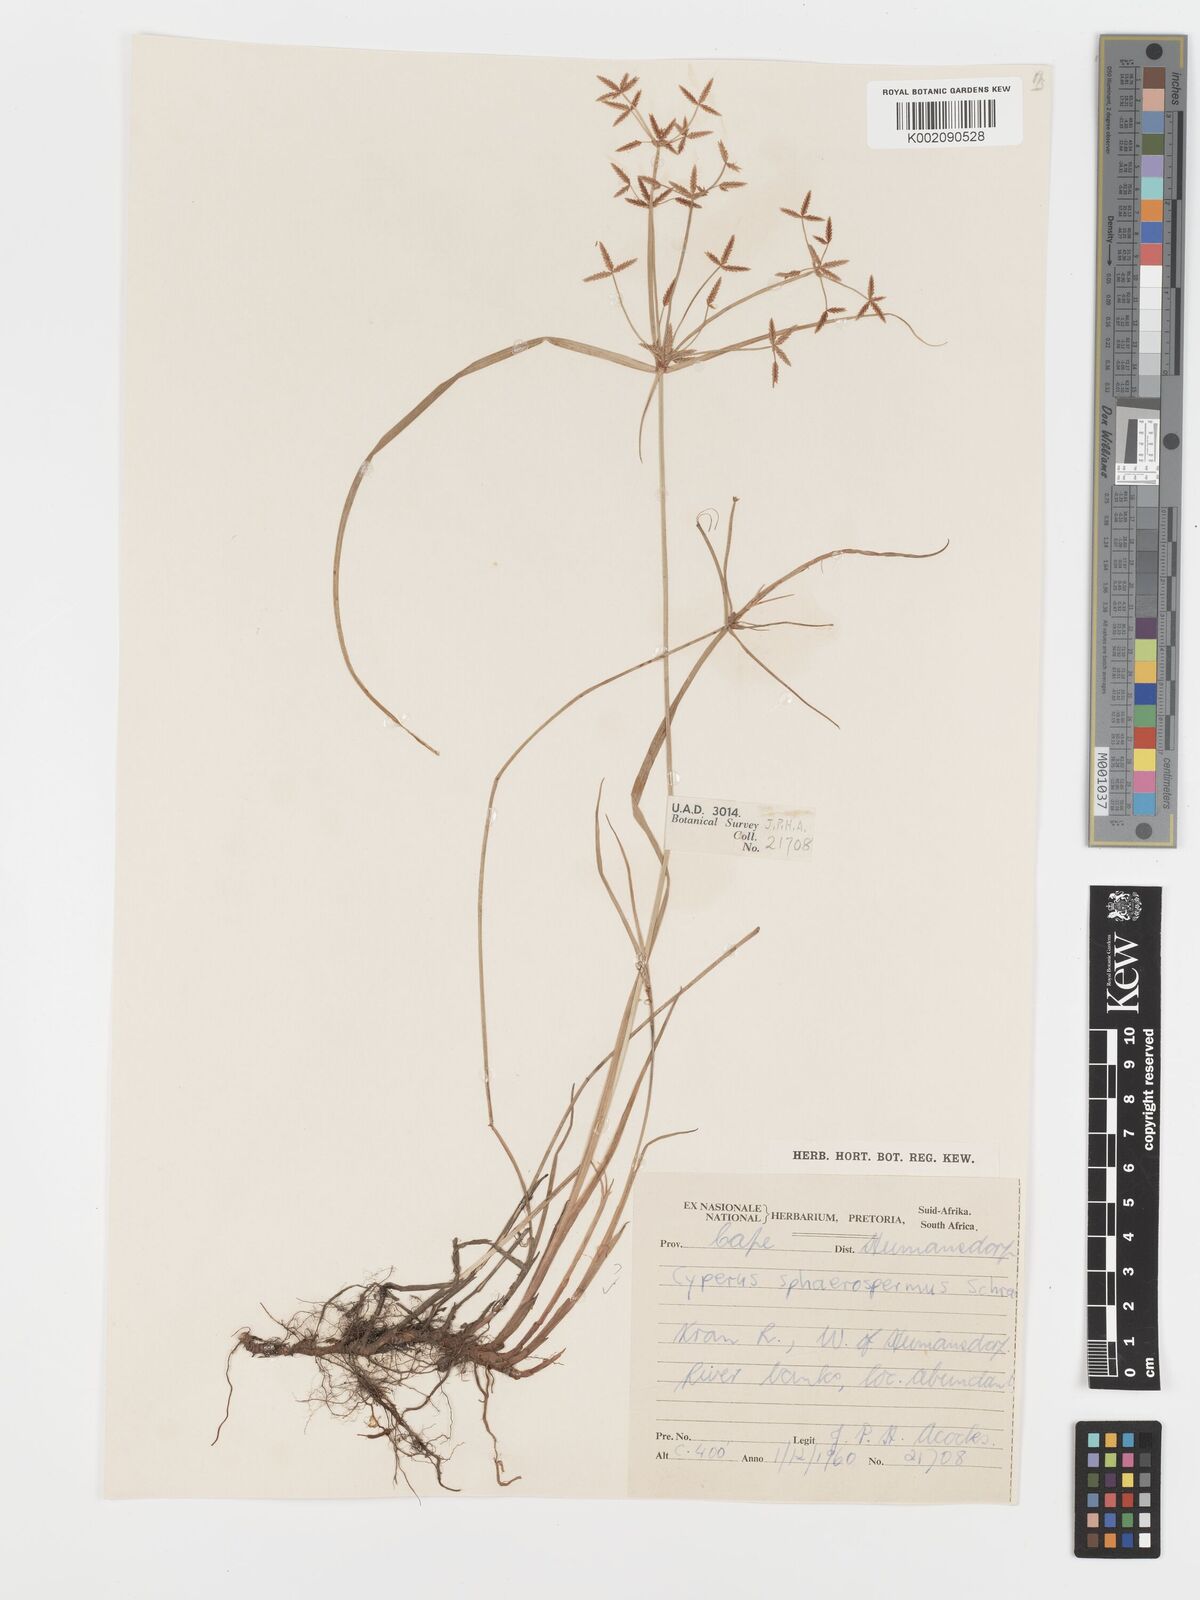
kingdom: Plantae
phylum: Tracheophyta
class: Liliopsida
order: Poales
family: Cyperaceae
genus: Cyperus
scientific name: Cyperus sphaerospermus
